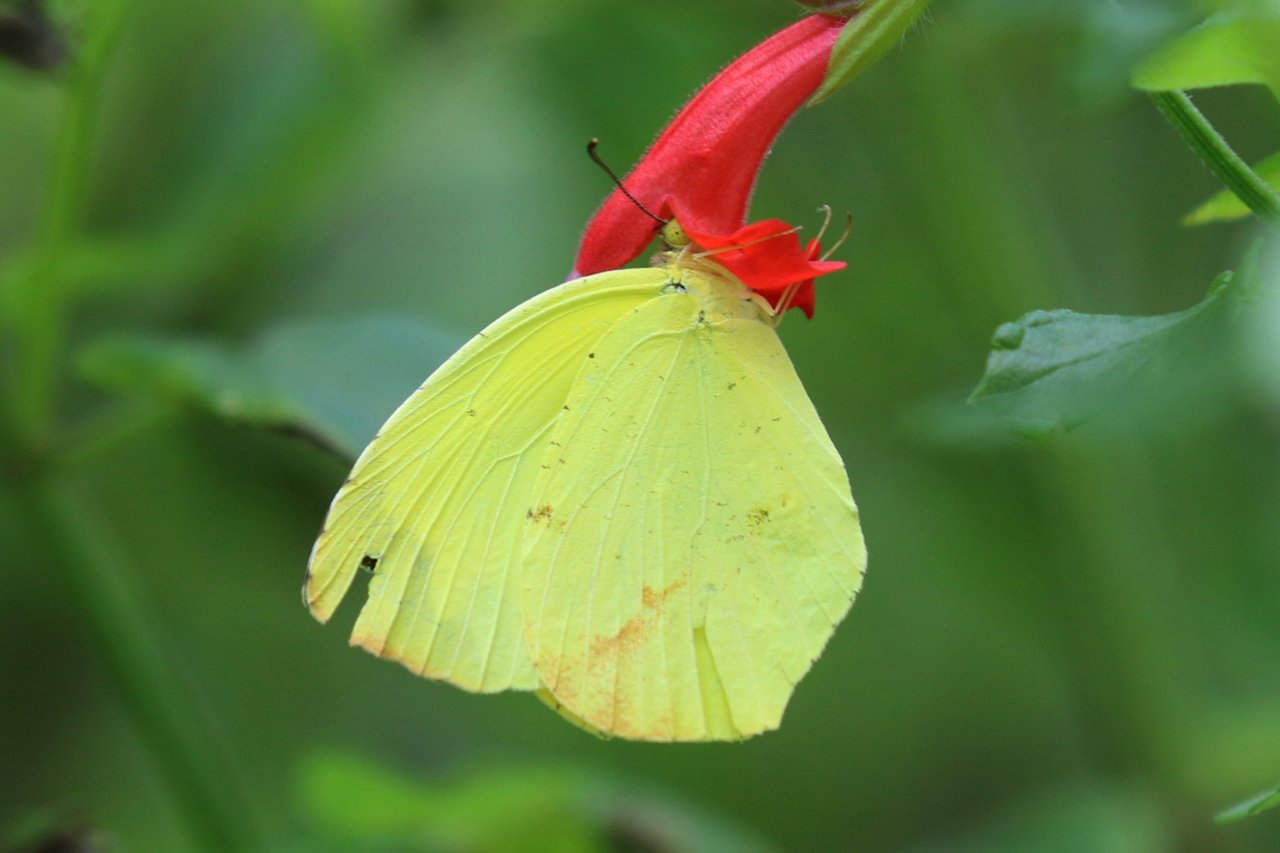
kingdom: Animalia
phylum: Arthropoda
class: Insecta
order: Lepidoptera
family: Pieridae
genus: Eurema
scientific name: Eurema boisduvaliana
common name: Boisduval's Yellow
